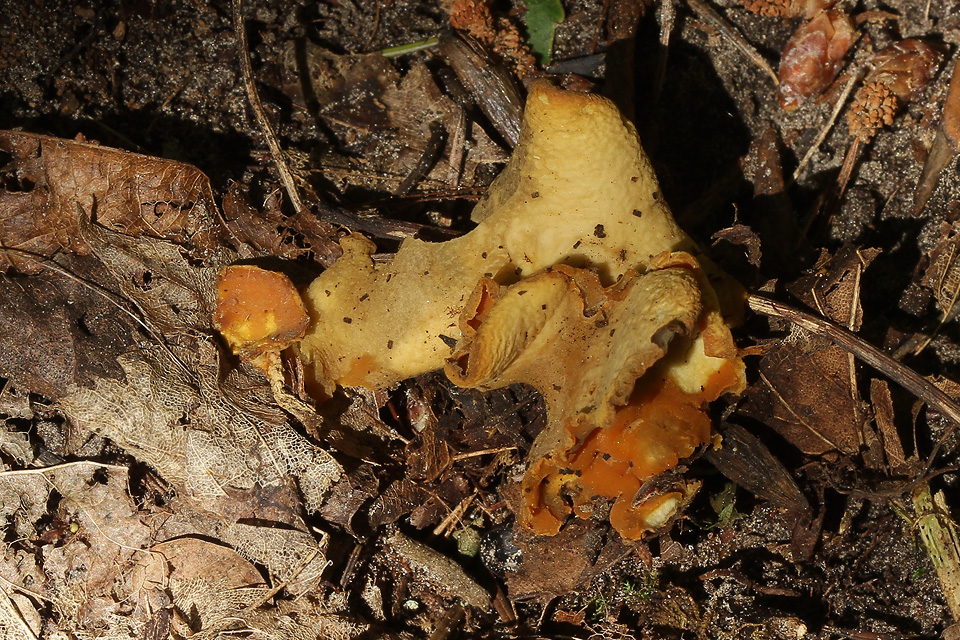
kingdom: Fungi
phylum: Ascomycota
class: Pezizomycetes
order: Pezizales
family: Pyronemataceae
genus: Sowerbyella
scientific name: Sowerbyella brevispora
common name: kortsporet rodbæger
